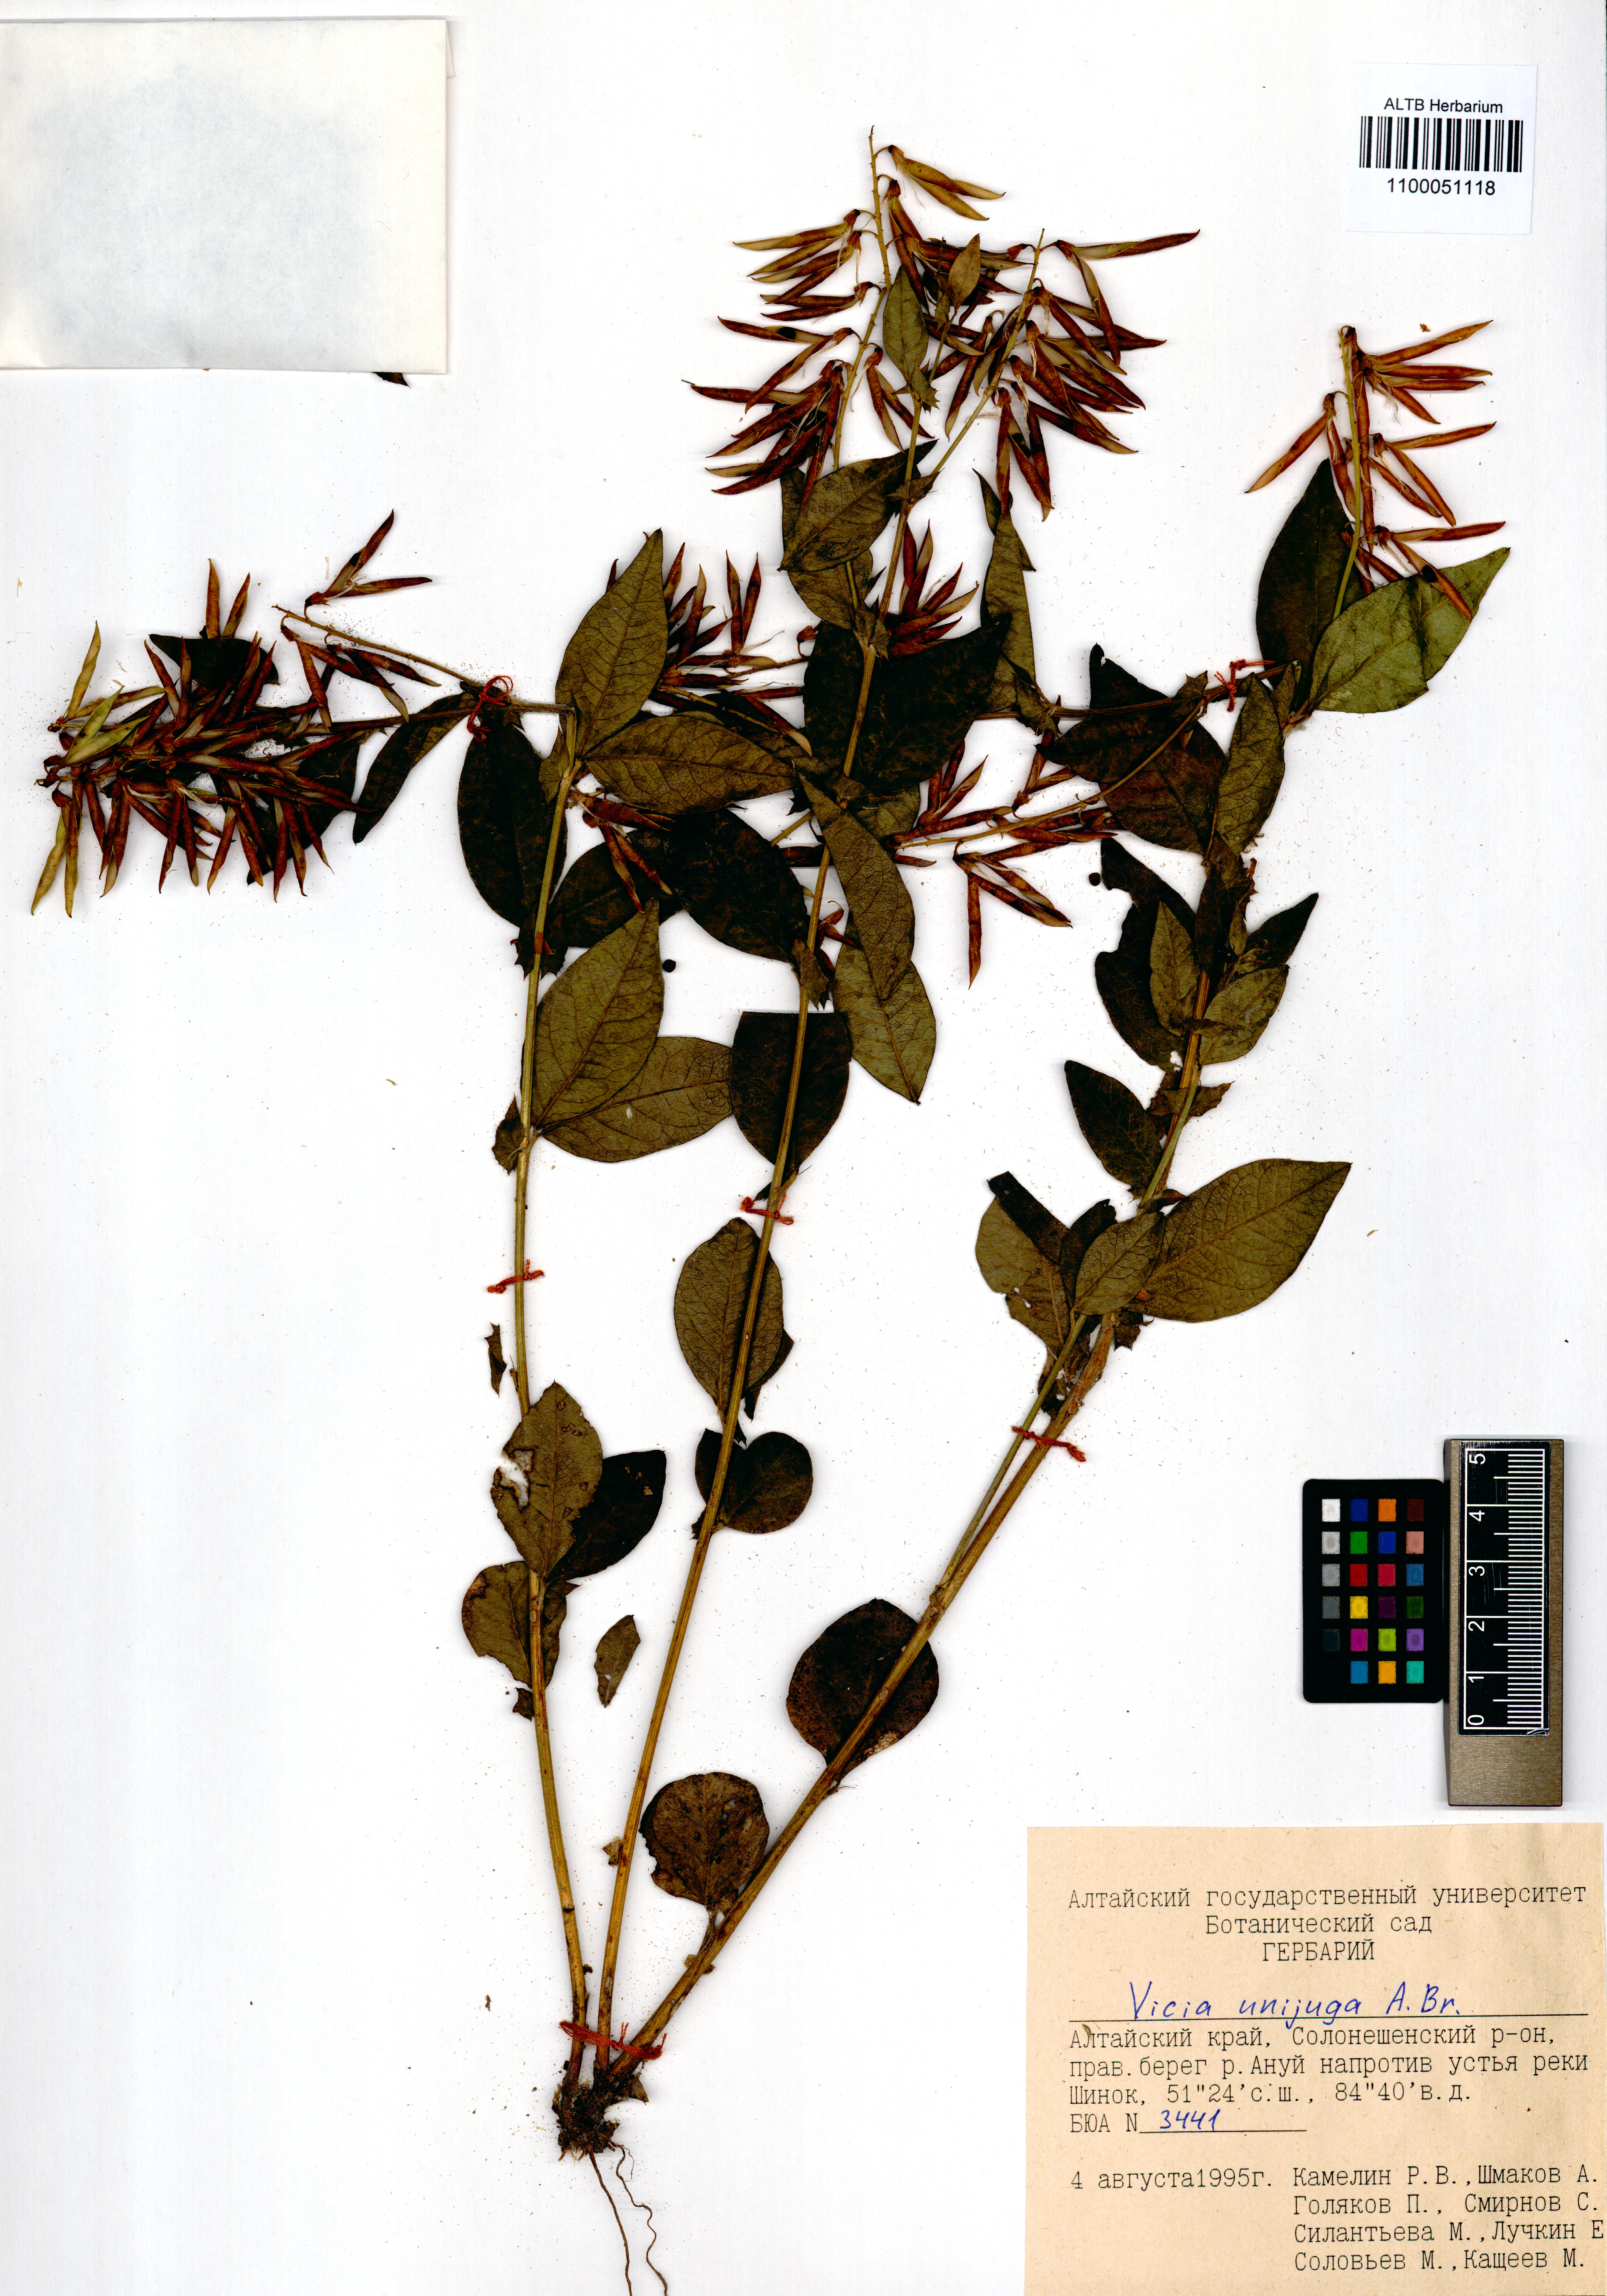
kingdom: Plantae
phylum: Tracheophyta
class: Magnoliopsida
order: Fabales
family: Fabaceae
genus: Vicia
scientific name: Vicia unijuga
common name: Two-leaf vetch
